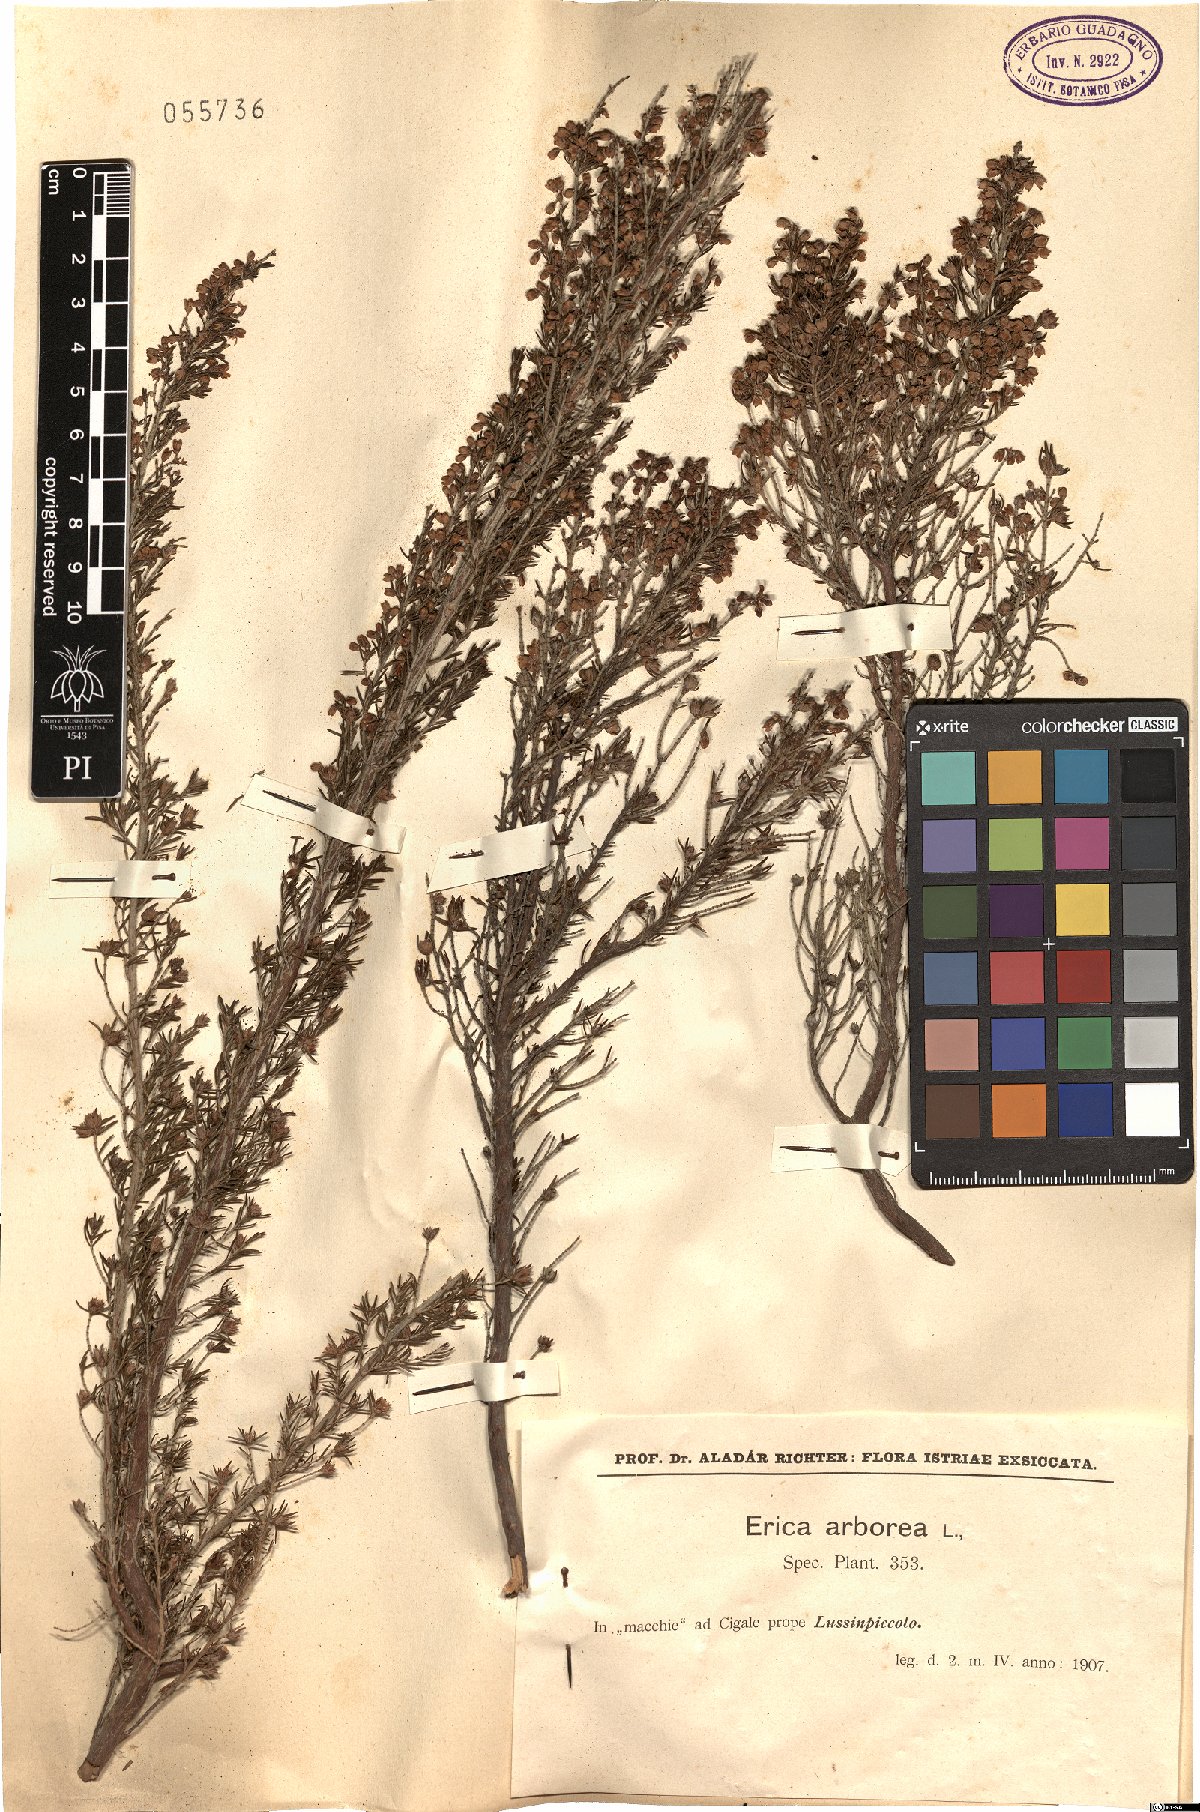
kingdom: Plantae
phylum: Tracheophyta
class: Magnoliopsida
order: Ericales
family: Ericaceae
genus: Erica
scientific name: Erica arborea
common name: Tree heath
